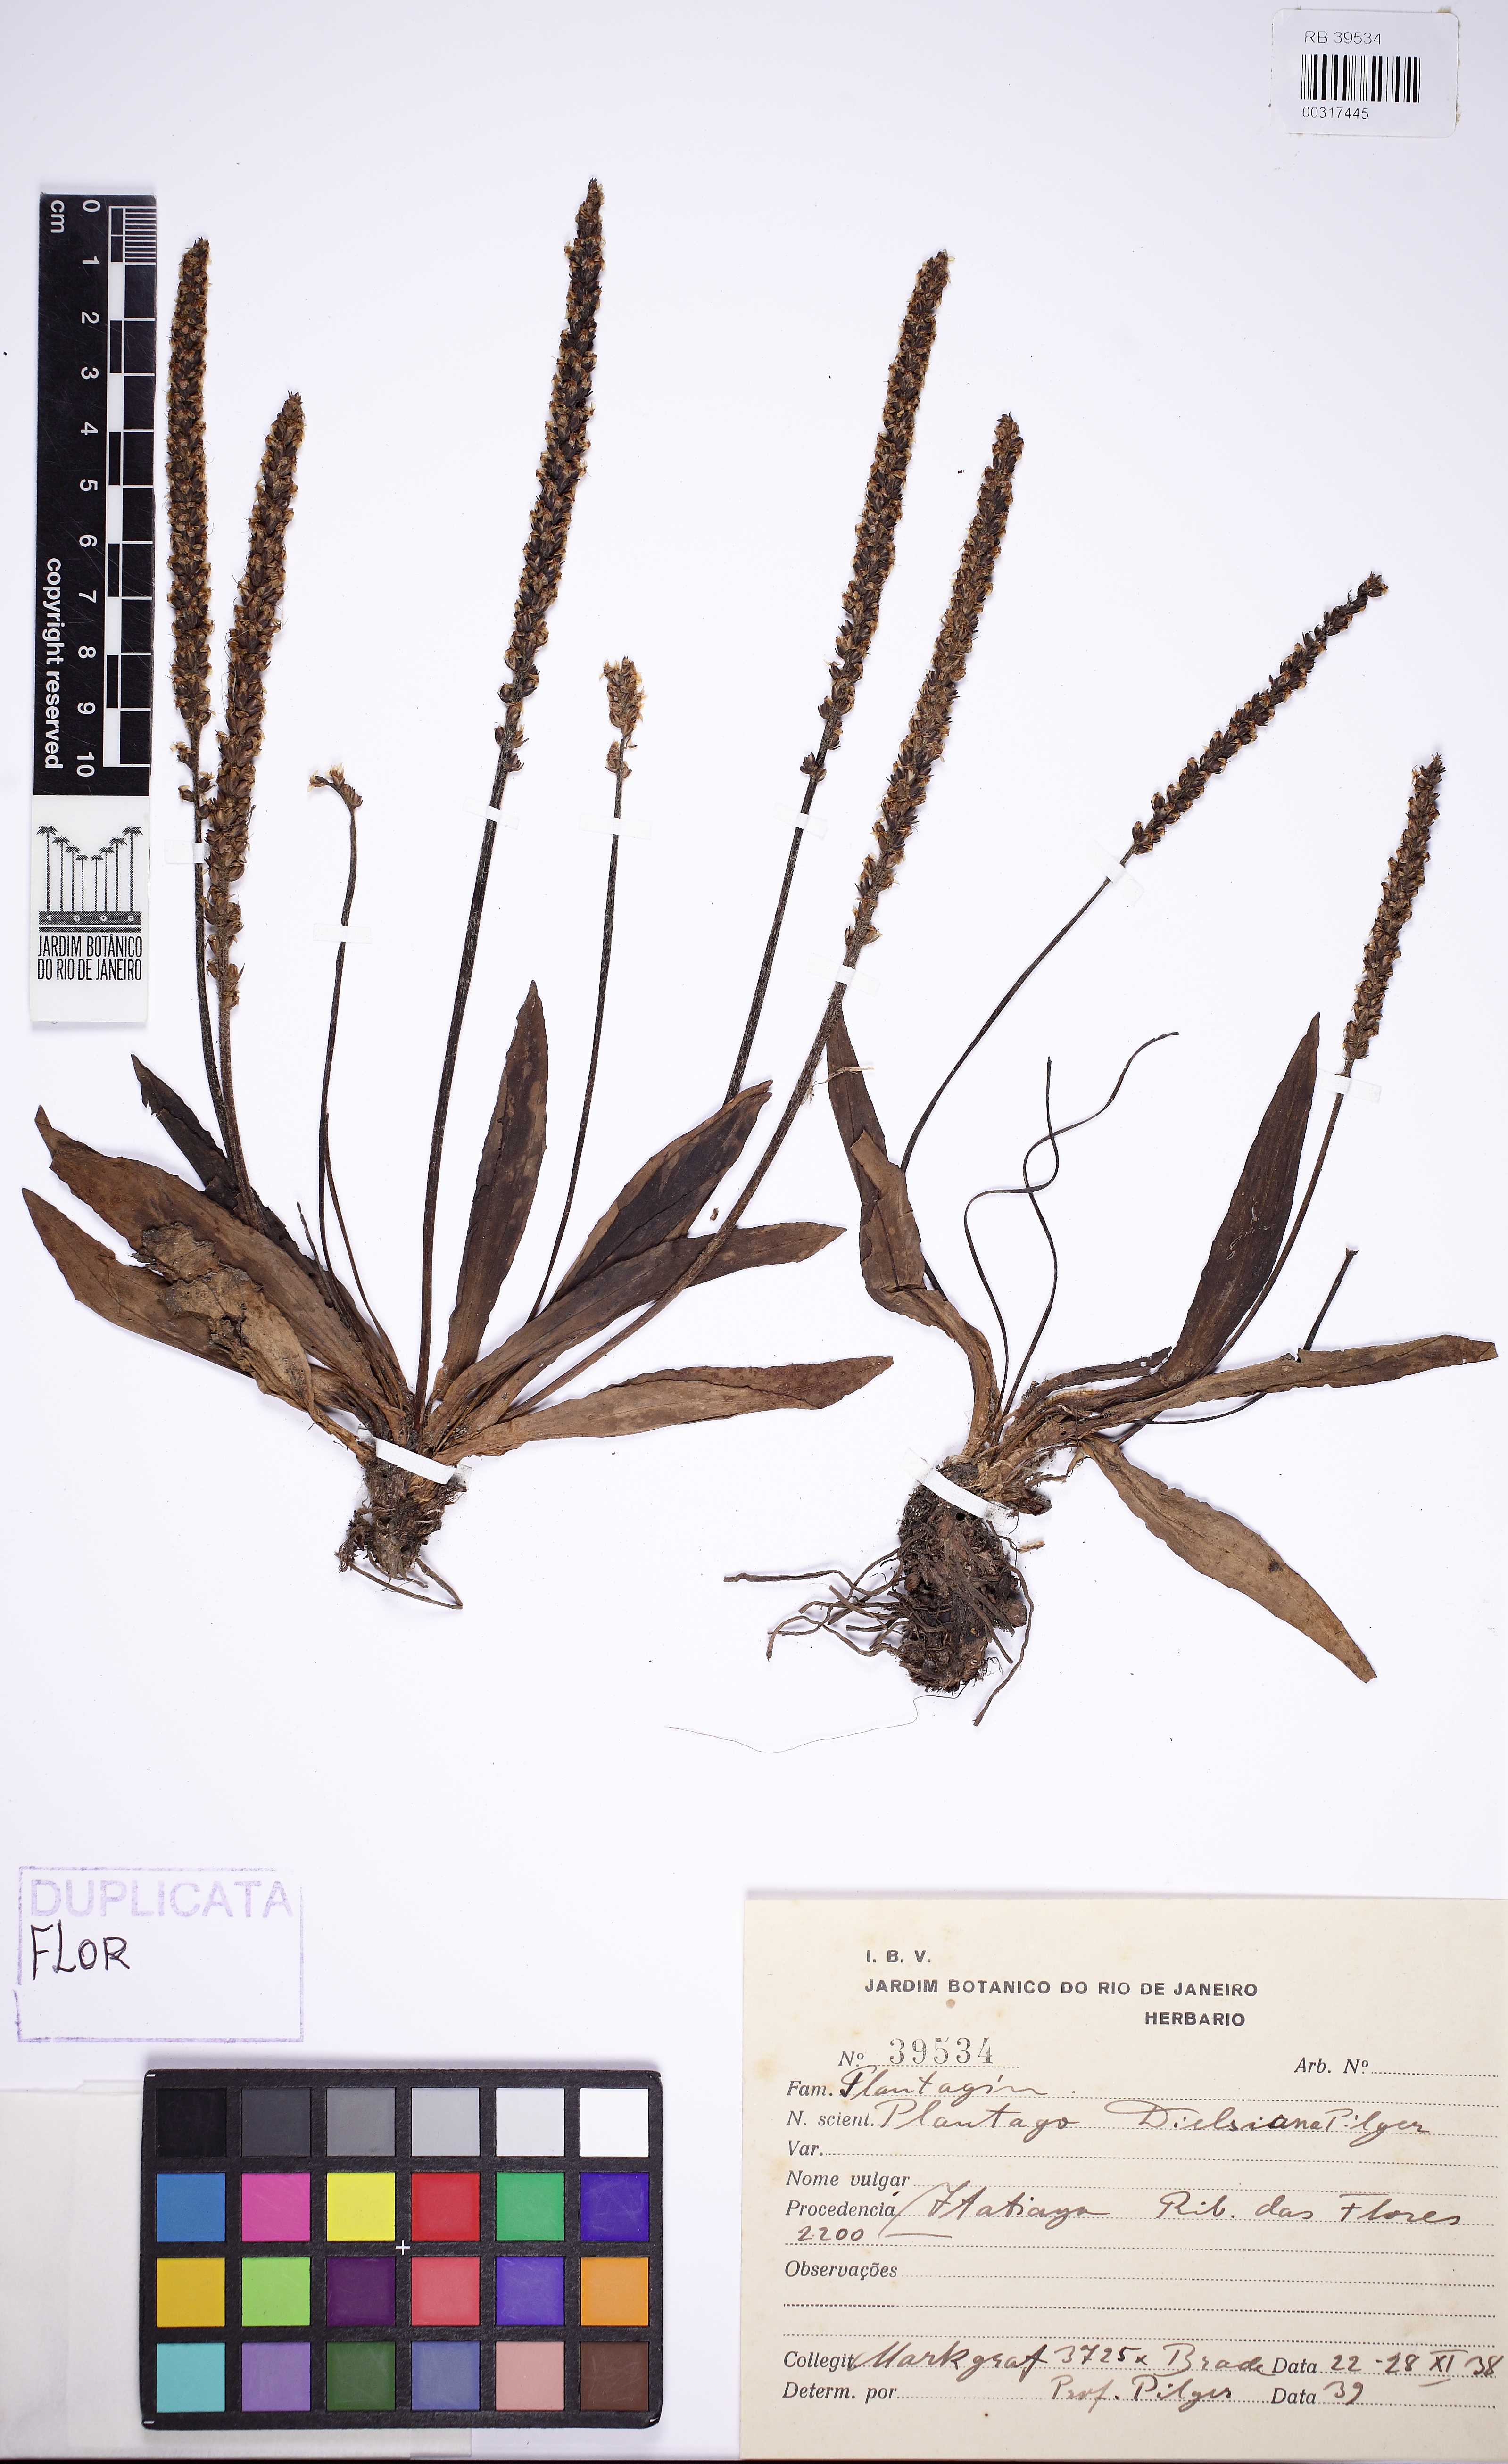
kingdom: Plantae
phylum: Tracheophyta
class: Magnoliopsida
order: Lamiales
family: Plantaginaceae
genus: Plantago
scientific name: Plantago dielsiana
